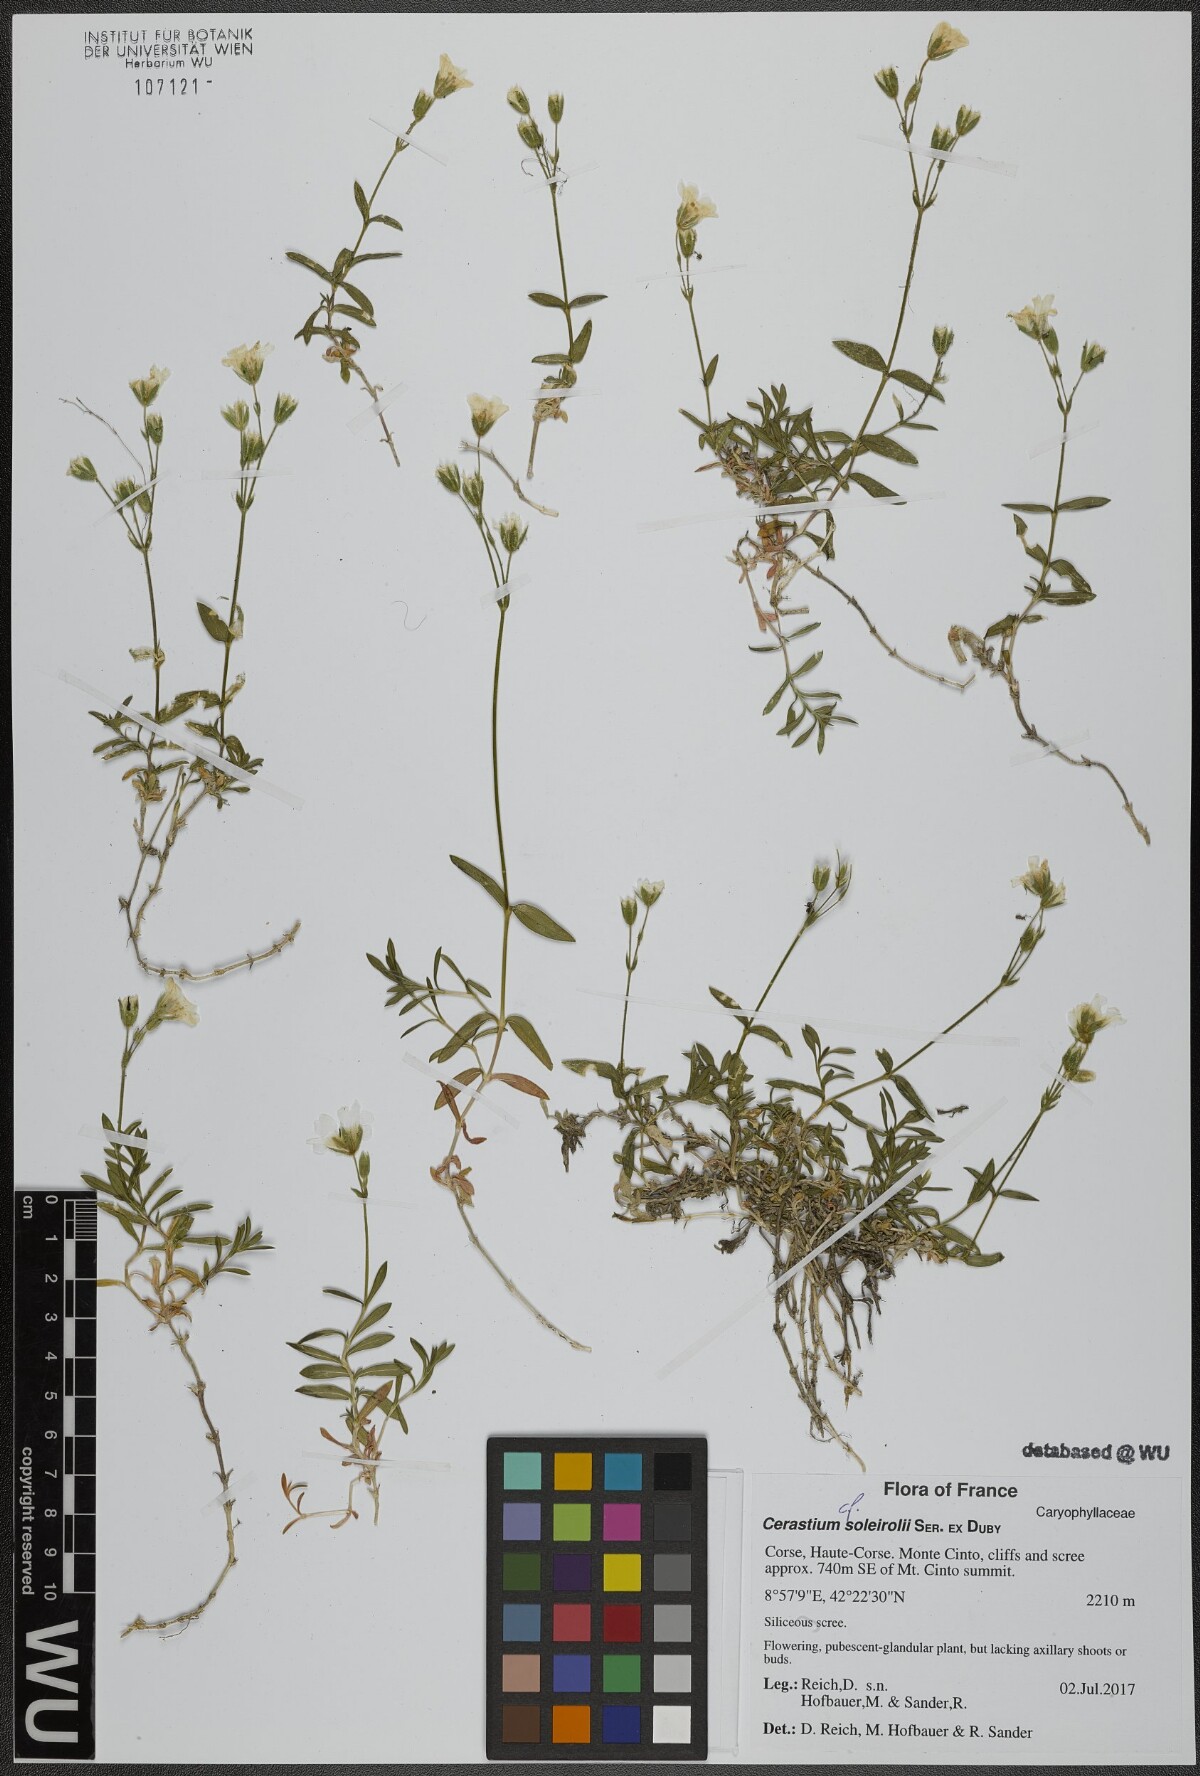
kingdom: Plantae
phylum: Tracheophyta
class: Magnoliopsida
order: Caryophyllales
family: Caryophyllaceae
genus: Cerastium
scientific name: Cerastium soleirolii
